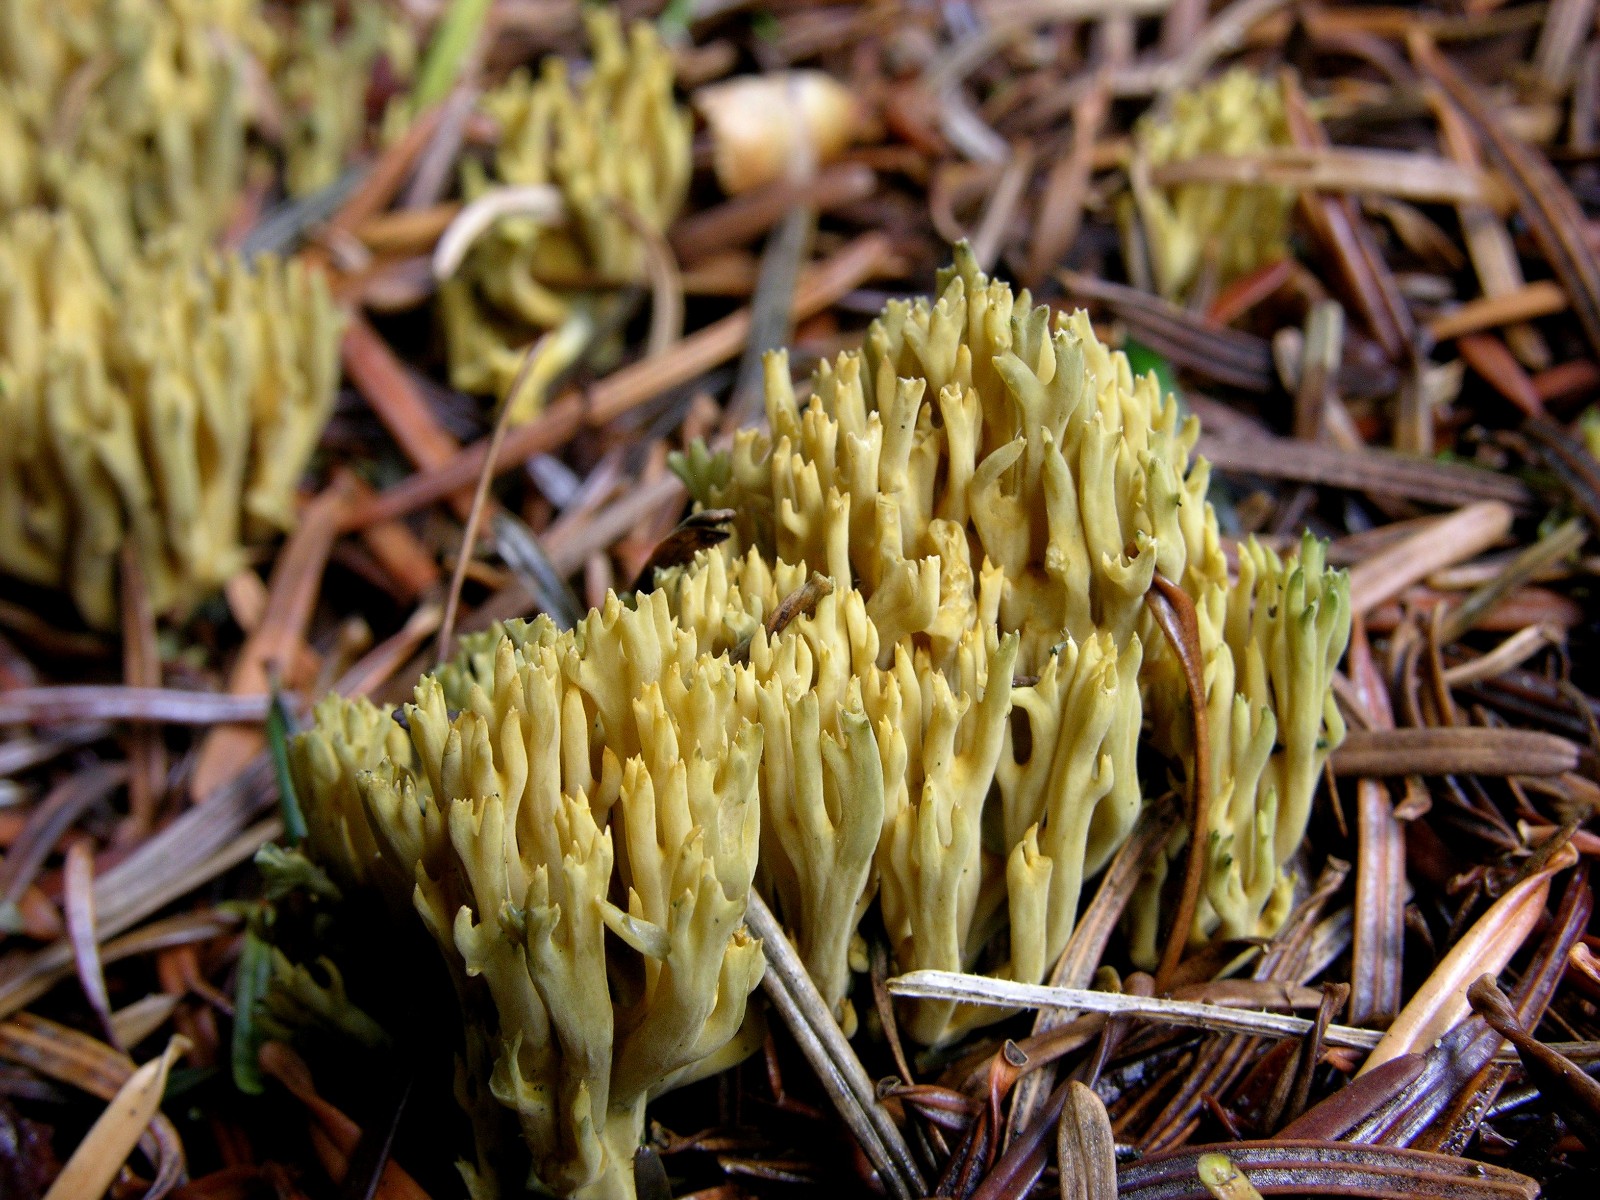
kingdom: Fungi
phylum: Basidiomycota
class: Agaricomycetes
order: Gomphales
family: Gomphaceae
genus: Phaeoclavulina
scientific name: Phaeoclavulina abietina
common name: gulgrøn koralsvamp
